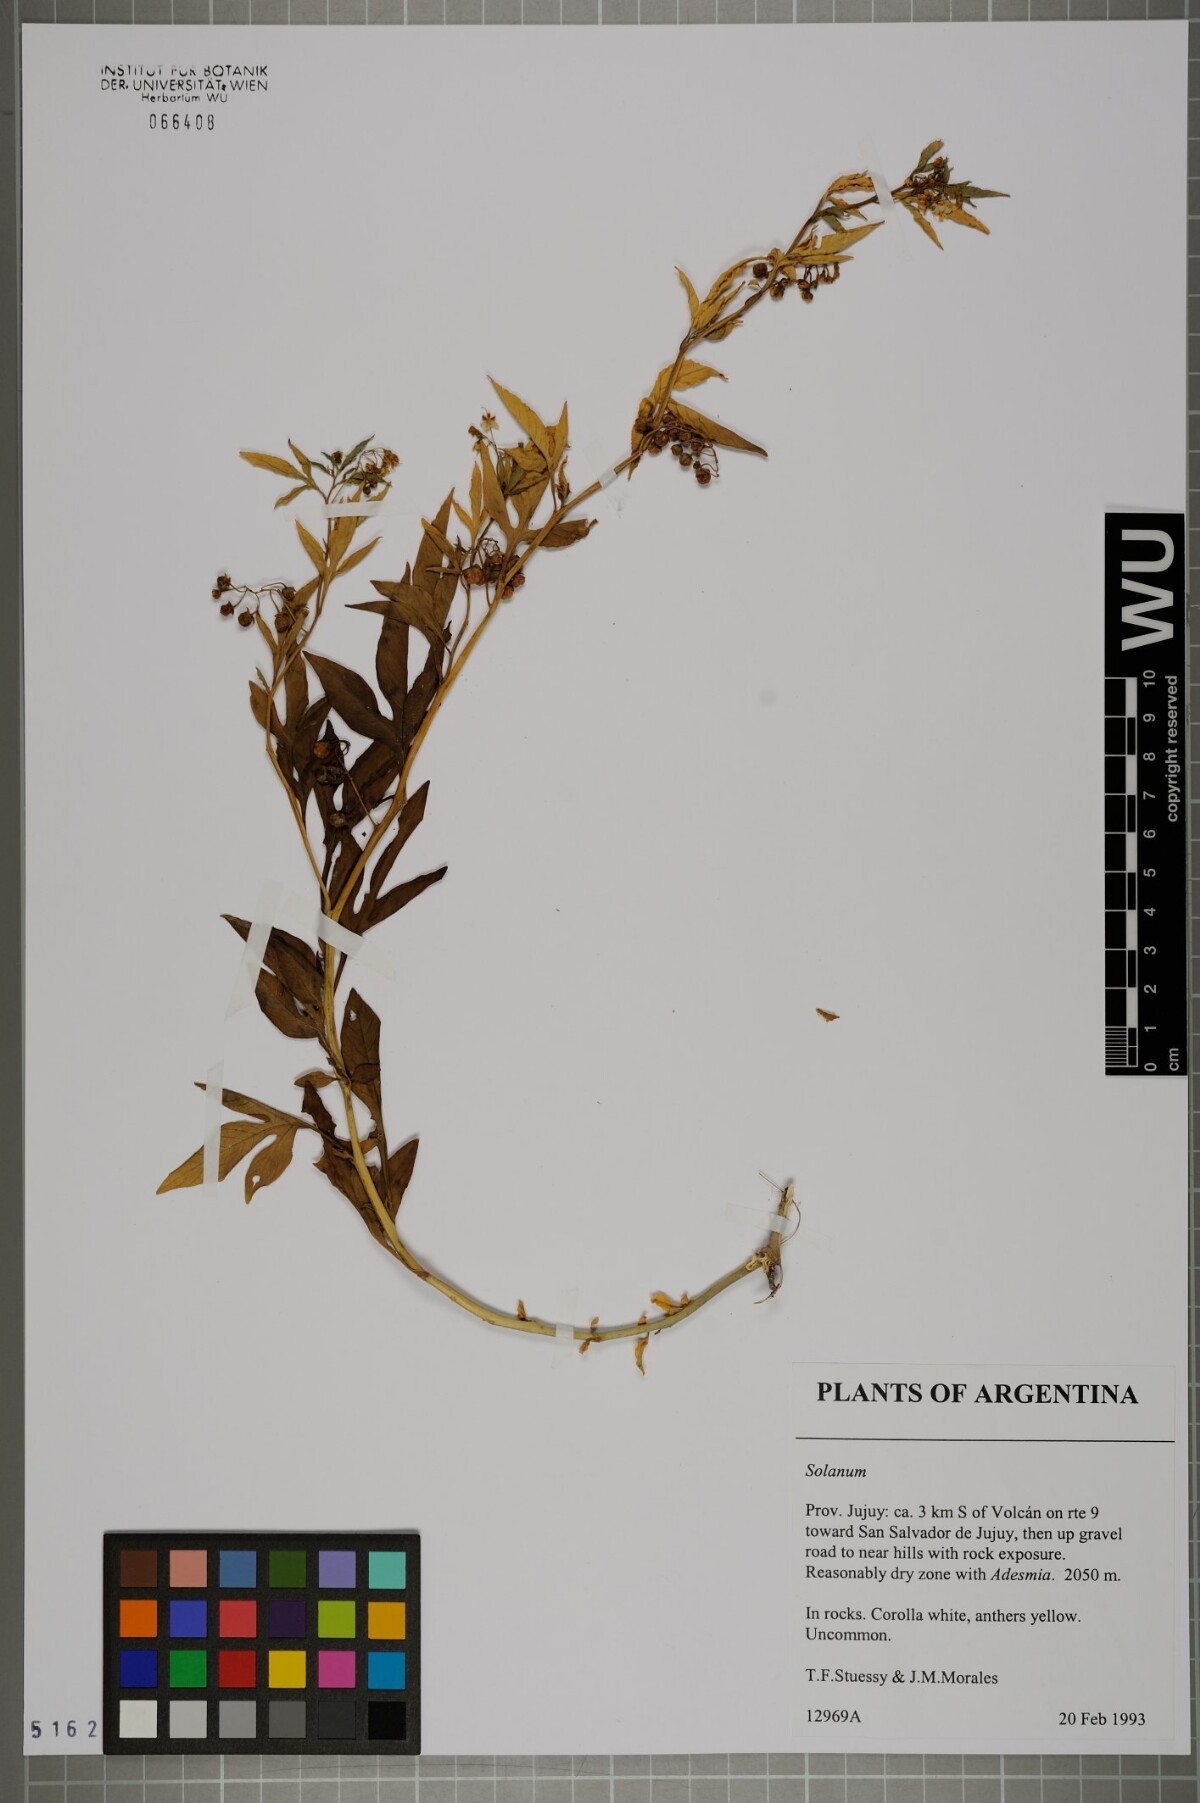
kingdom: Plantae
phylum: Tracheophyta
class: Magnoliopsida
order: Solanales
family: Solanaceae
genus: Solanum
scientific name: Solanum
